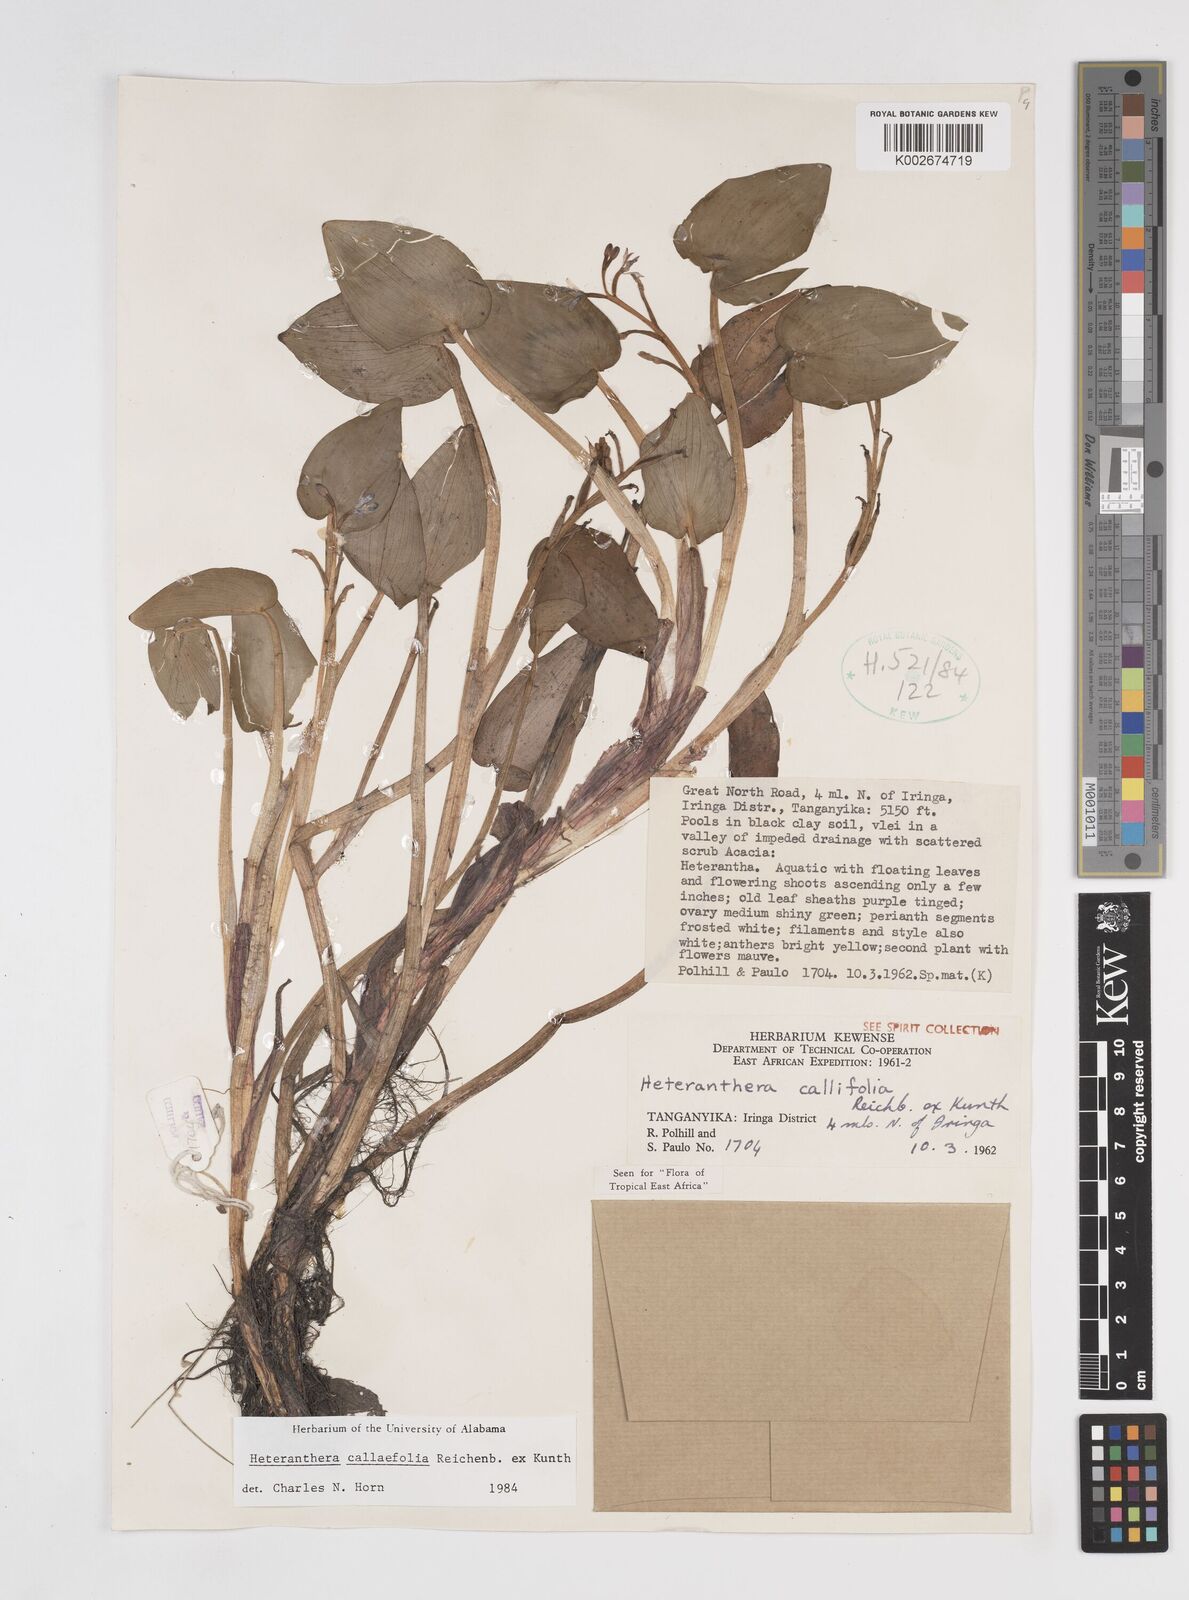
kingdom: Plantae
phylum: Tracheophyta
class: Liliopsida
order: Commelinales
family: Pontederiaceae
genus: Heteranthera
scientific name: Heteranthera callifolia
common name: Mud plantain
